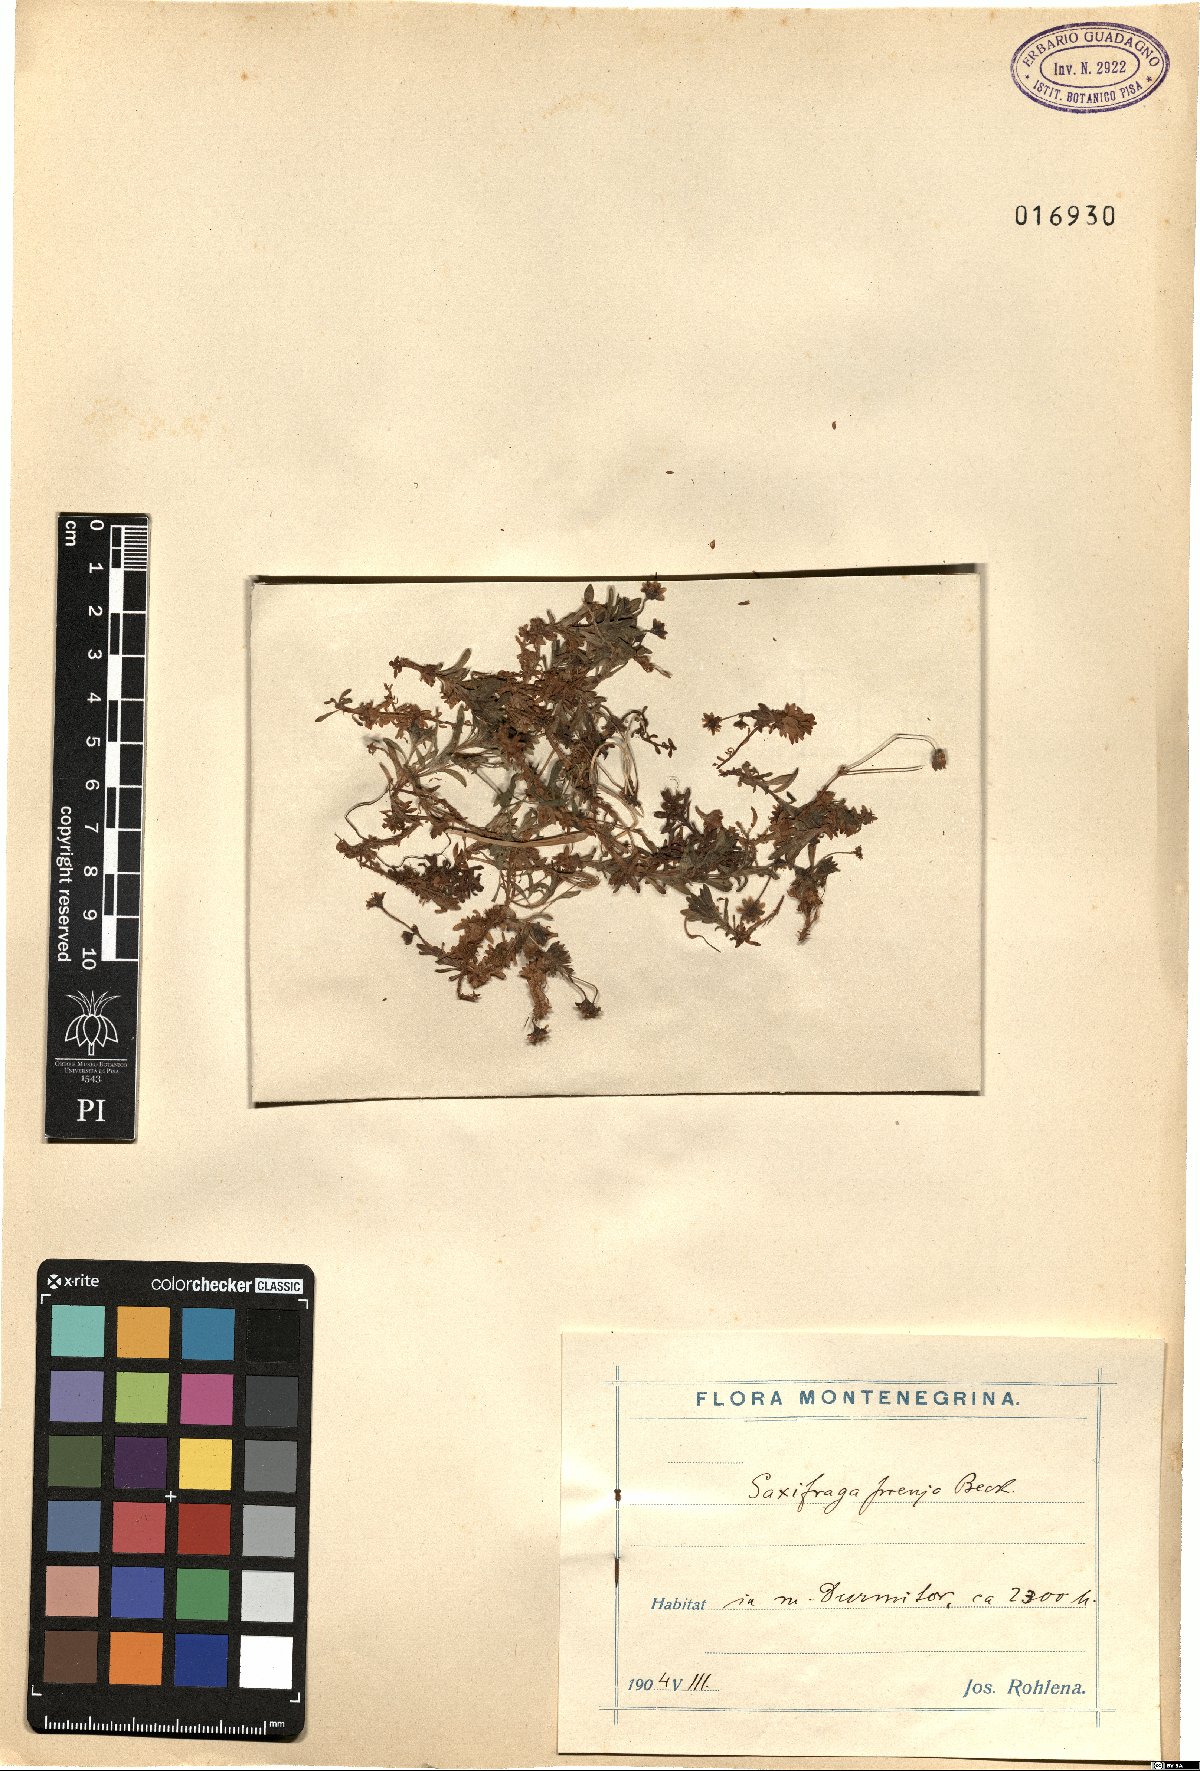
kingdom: Plantae
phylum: Tracheophyta
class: Magnoliopsida
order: Saxifragales
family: Saxifragaceae
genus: Saxifraga
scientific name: Saxifraga prenja
